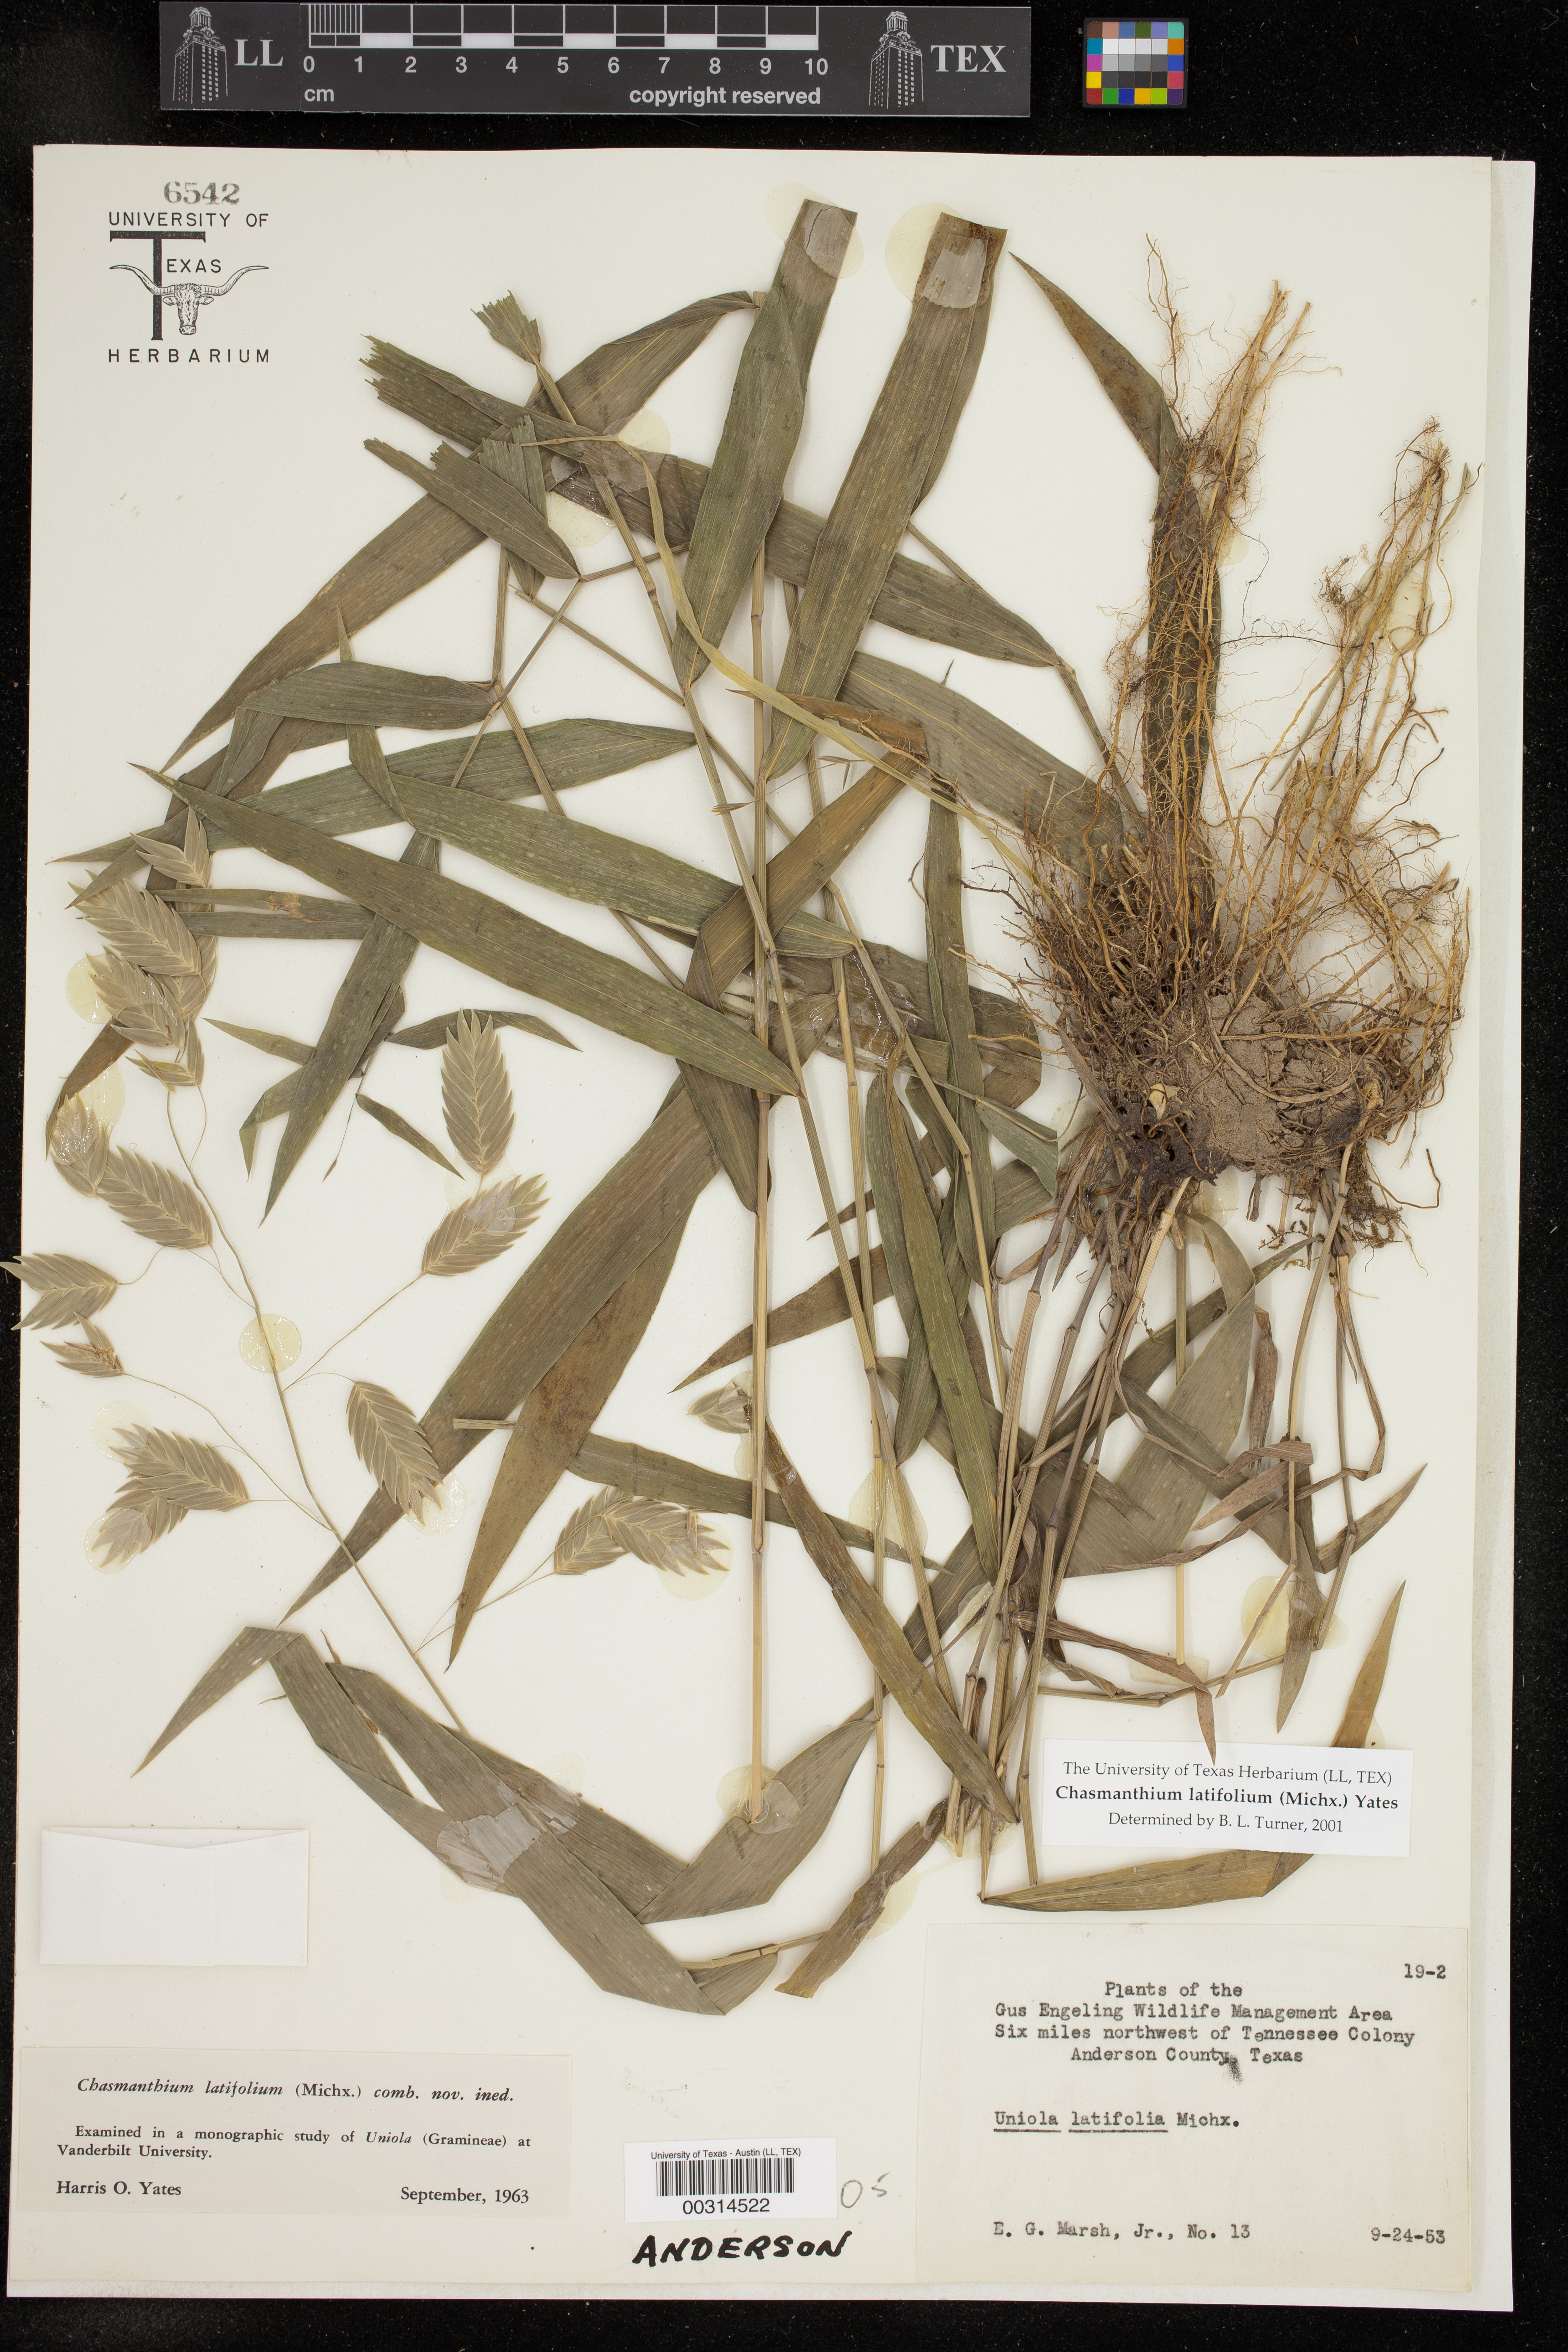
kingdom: Plantae
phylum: Tracheophyta
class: Liliopsida
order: Poales
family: Poaceae
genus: Chasmanthium
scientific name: Chasmanthium latifolium
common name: Broad-leaved chasmanthium
